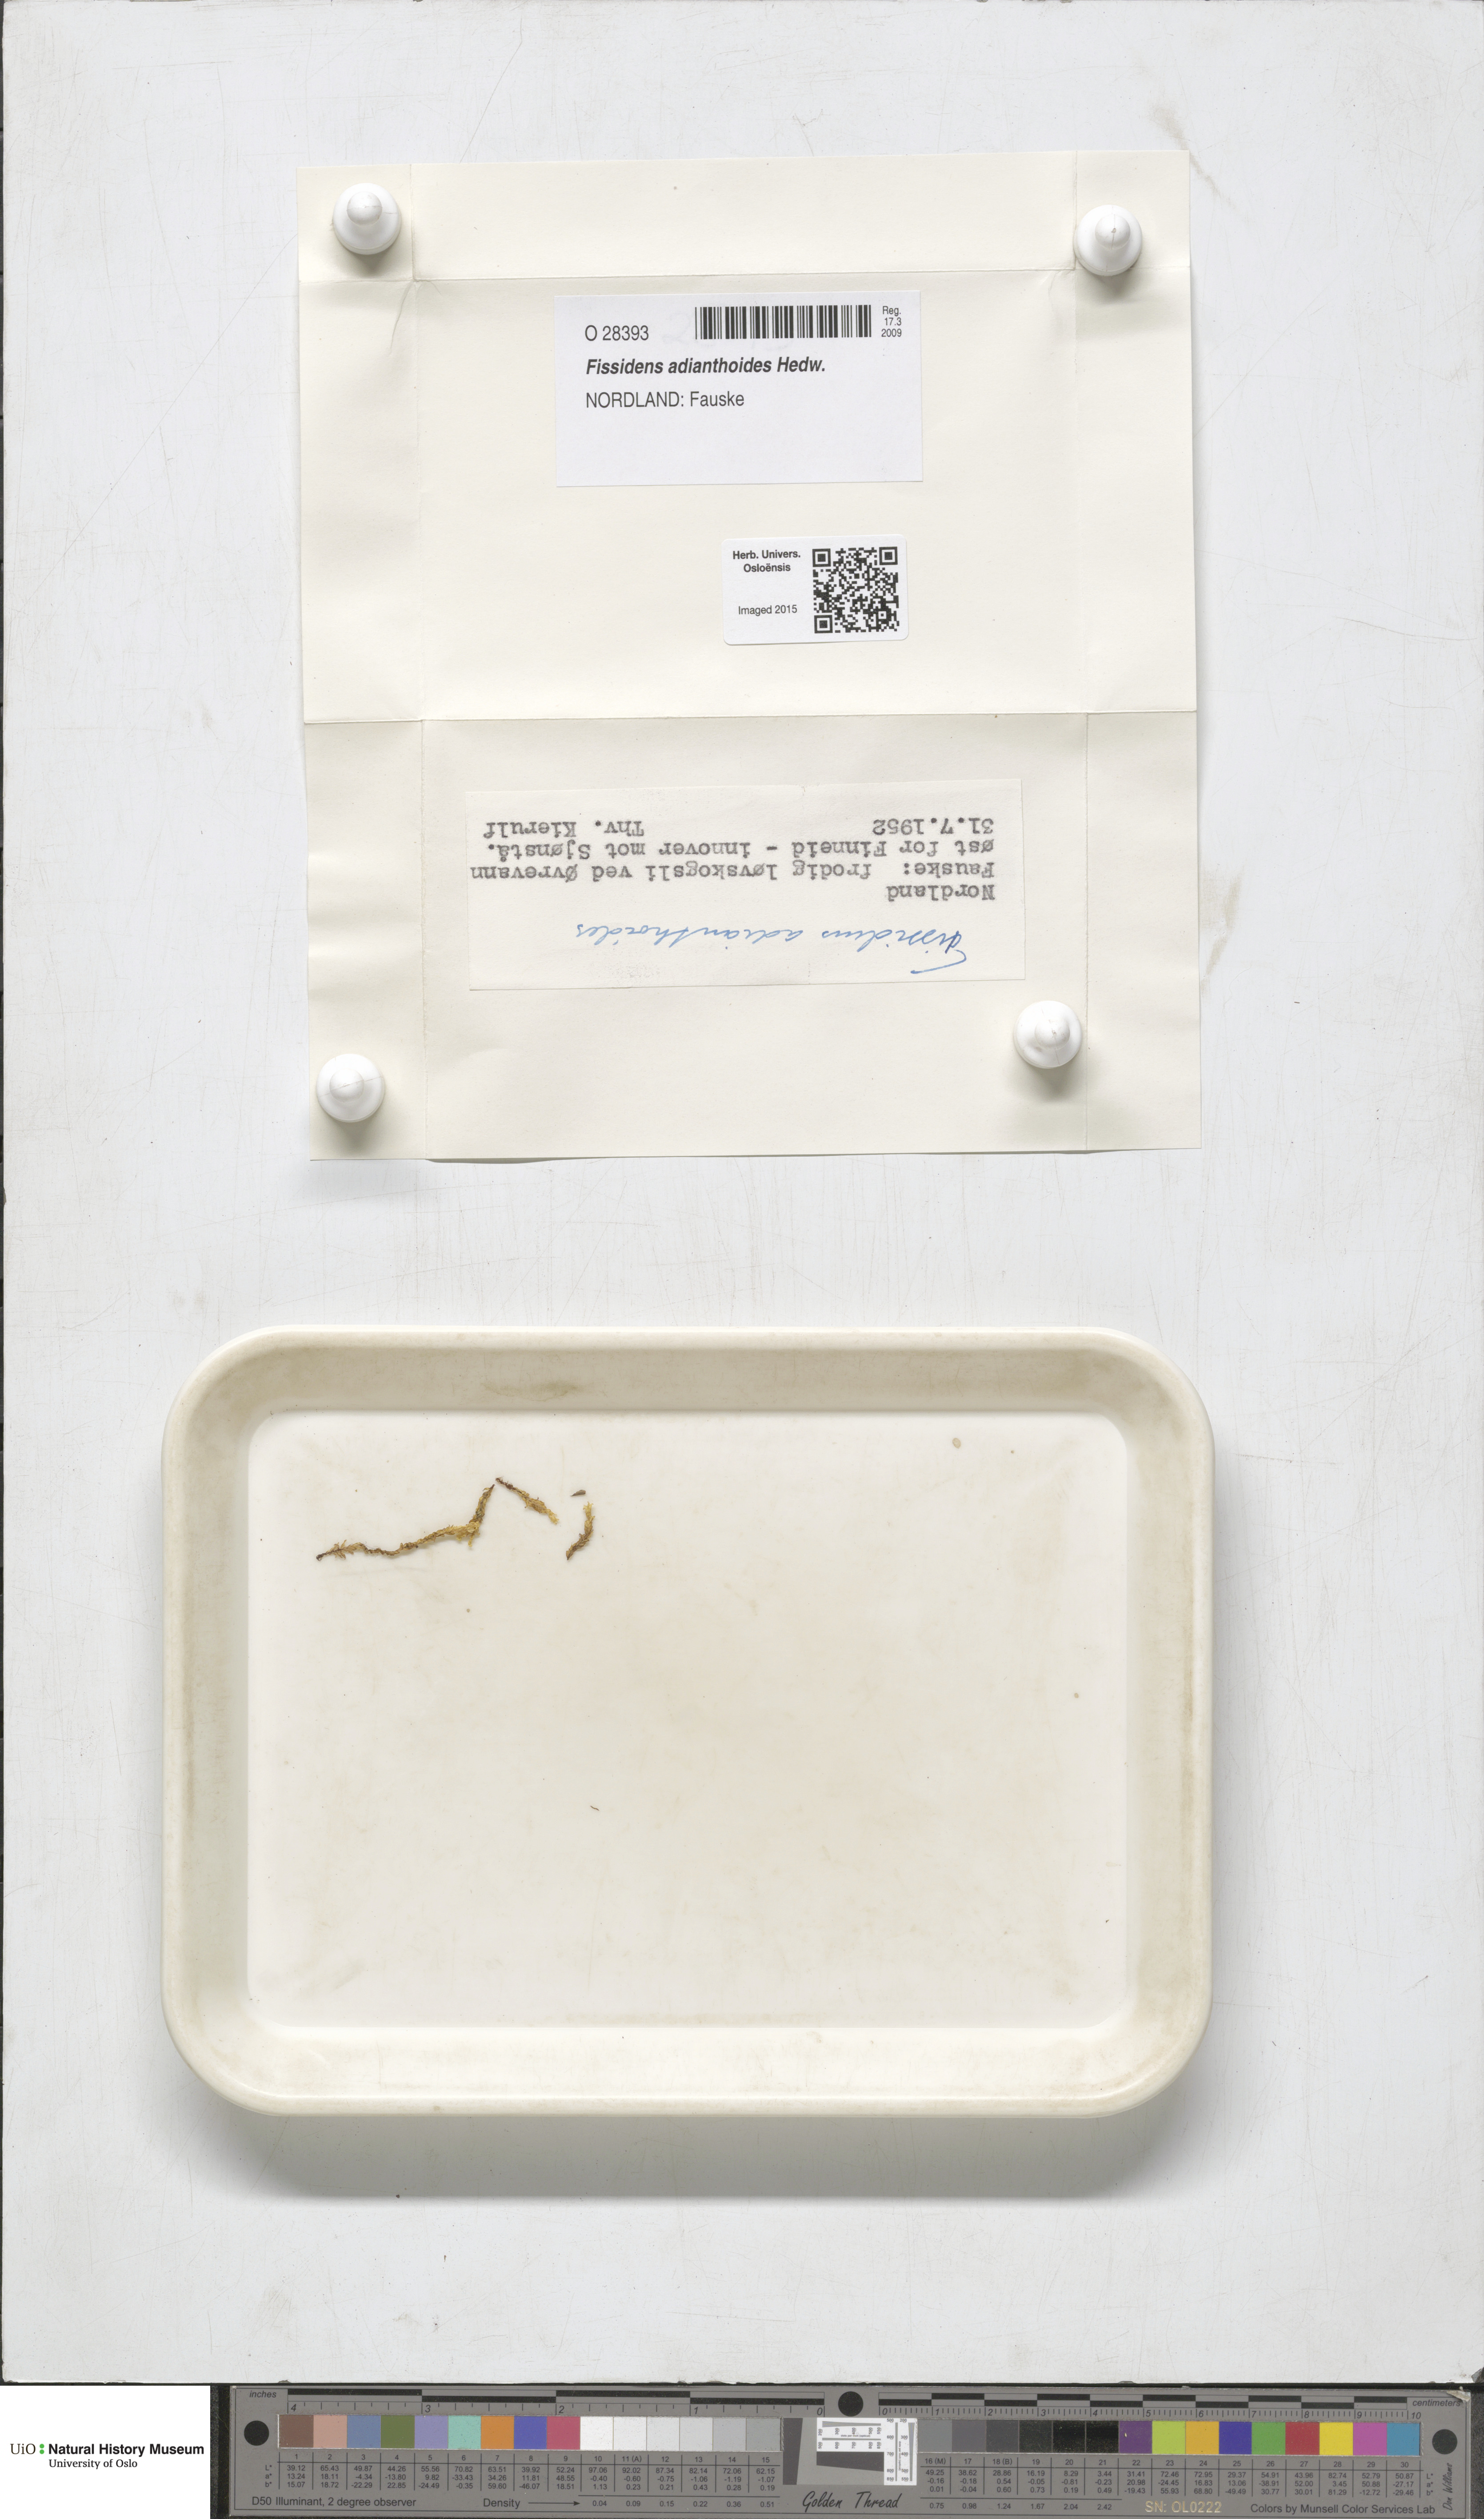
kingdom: Plantae
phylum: Bryophyta
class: Bryopsida
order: Dicranales
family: Fissidentaceae
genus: Fissidens
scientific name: Fissidens adianthoides
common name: Maidenhair pocket moss
